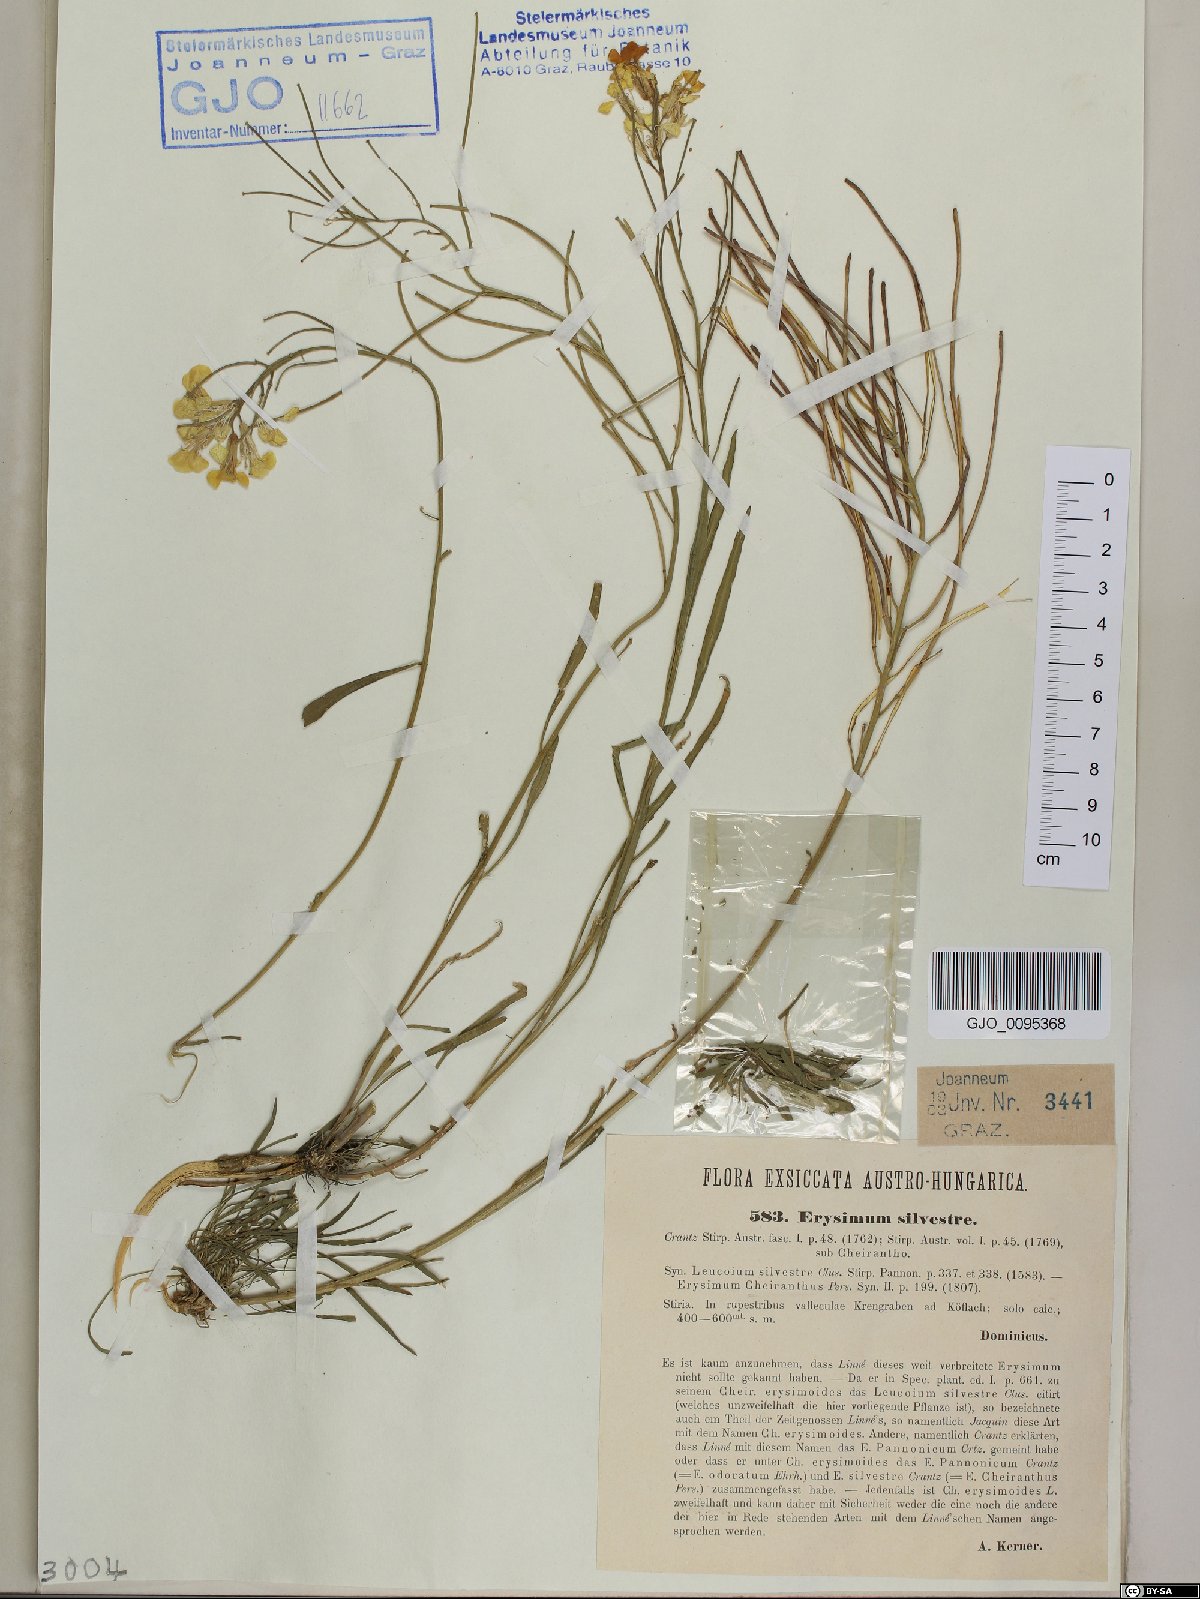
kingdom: Plantae
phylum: Tracheophyta
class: Magnoliopsida
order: Brassicales
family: Brassicaceae
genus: Erysimum
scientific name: Erysimum sylvestre
